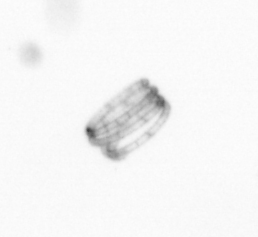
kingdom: Chromista
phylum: Ochrophyta
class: Bacillariophyceae
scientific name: Bacillariophyceae
